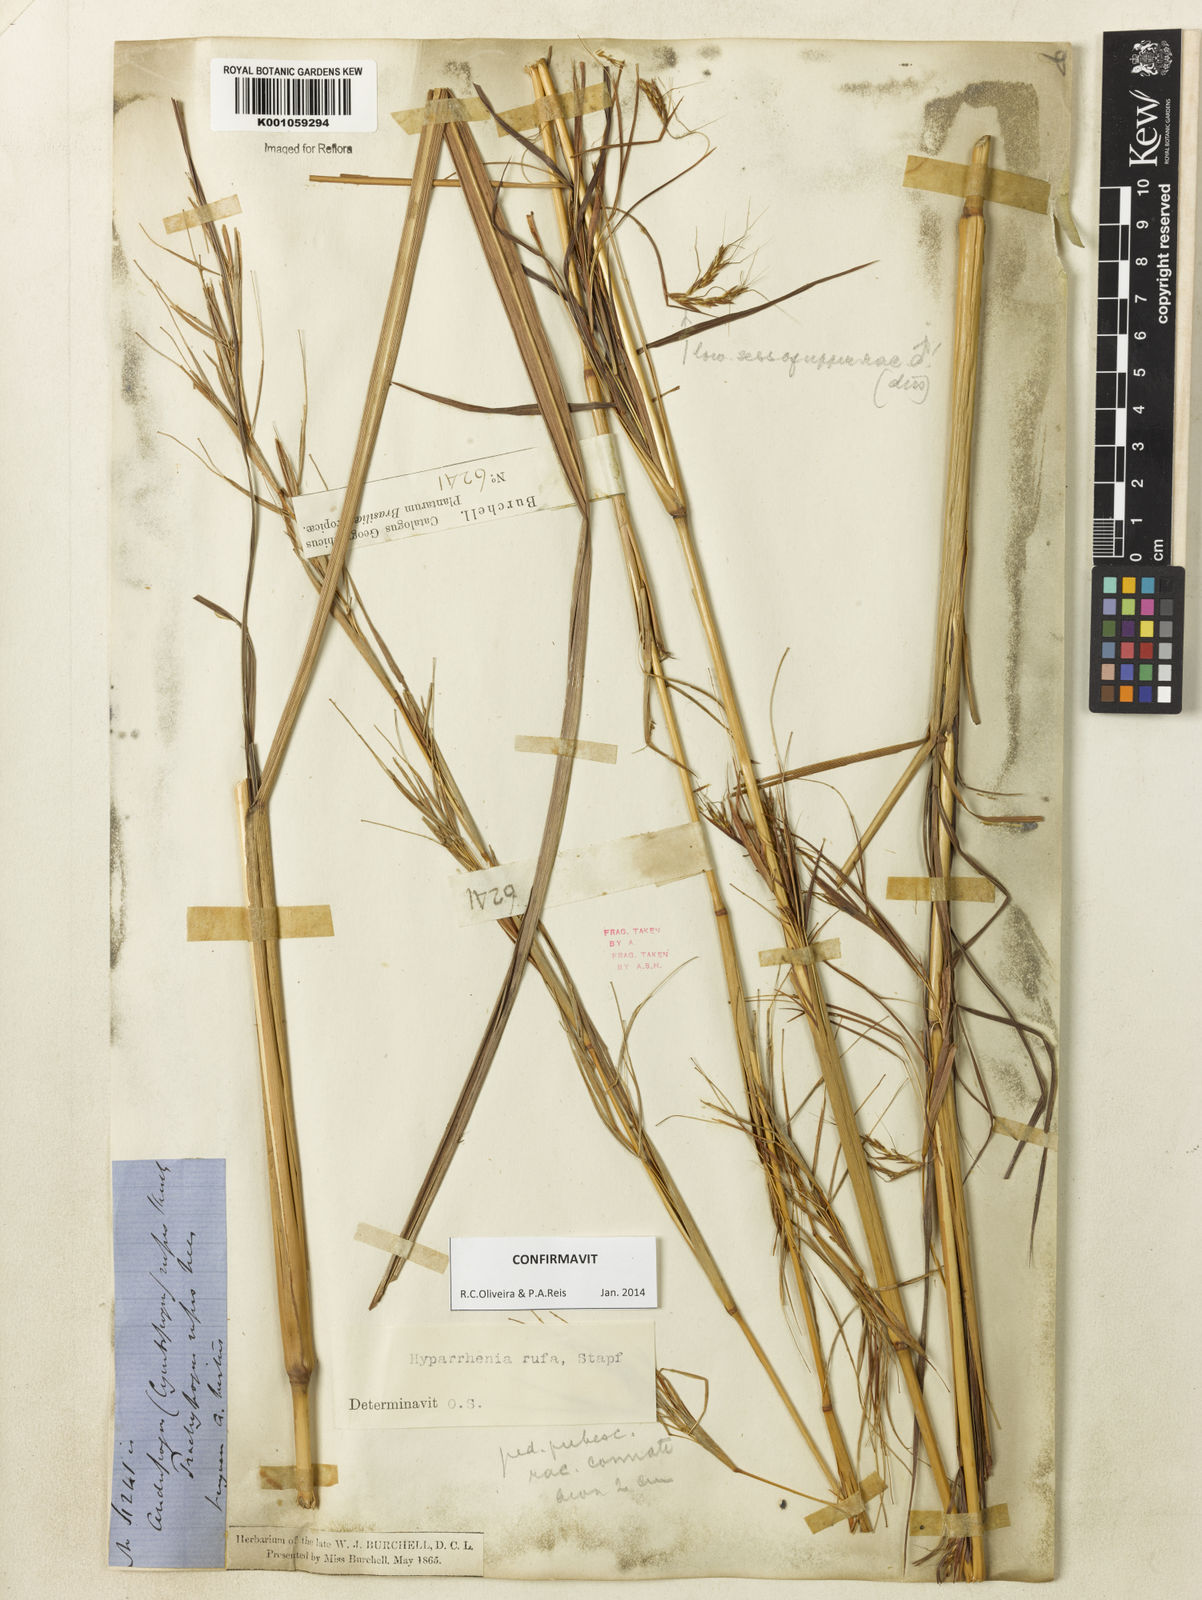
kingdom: Plantae
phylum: Tracheophyta
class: Liliopsida
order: Poales
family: Poaceae
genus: Hyparrhenia
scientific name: Hyparrhenia rufa
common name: Jaraguagrass
